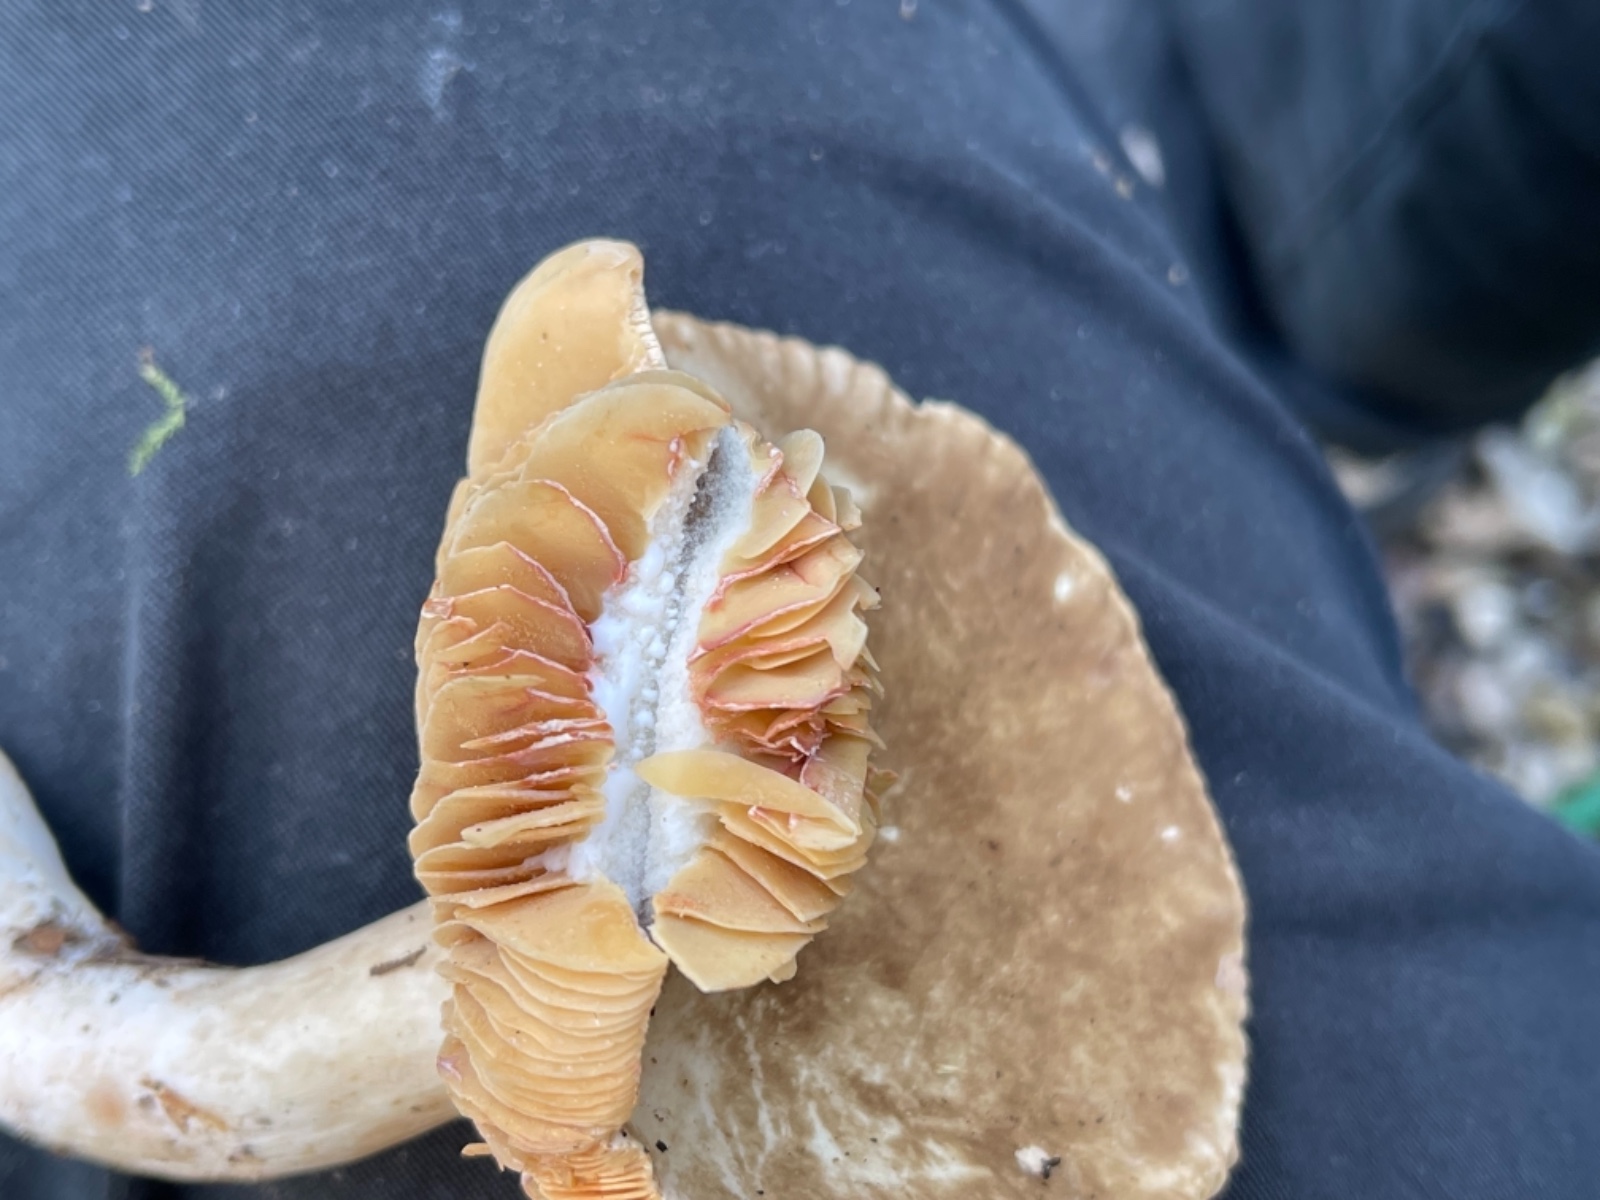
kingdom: Fungi
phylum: Basidiomycota
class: Agaricomycetes
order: Russulales
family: Russulaceae
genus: Lactarius
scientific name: Lactarius
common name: mælkehat
